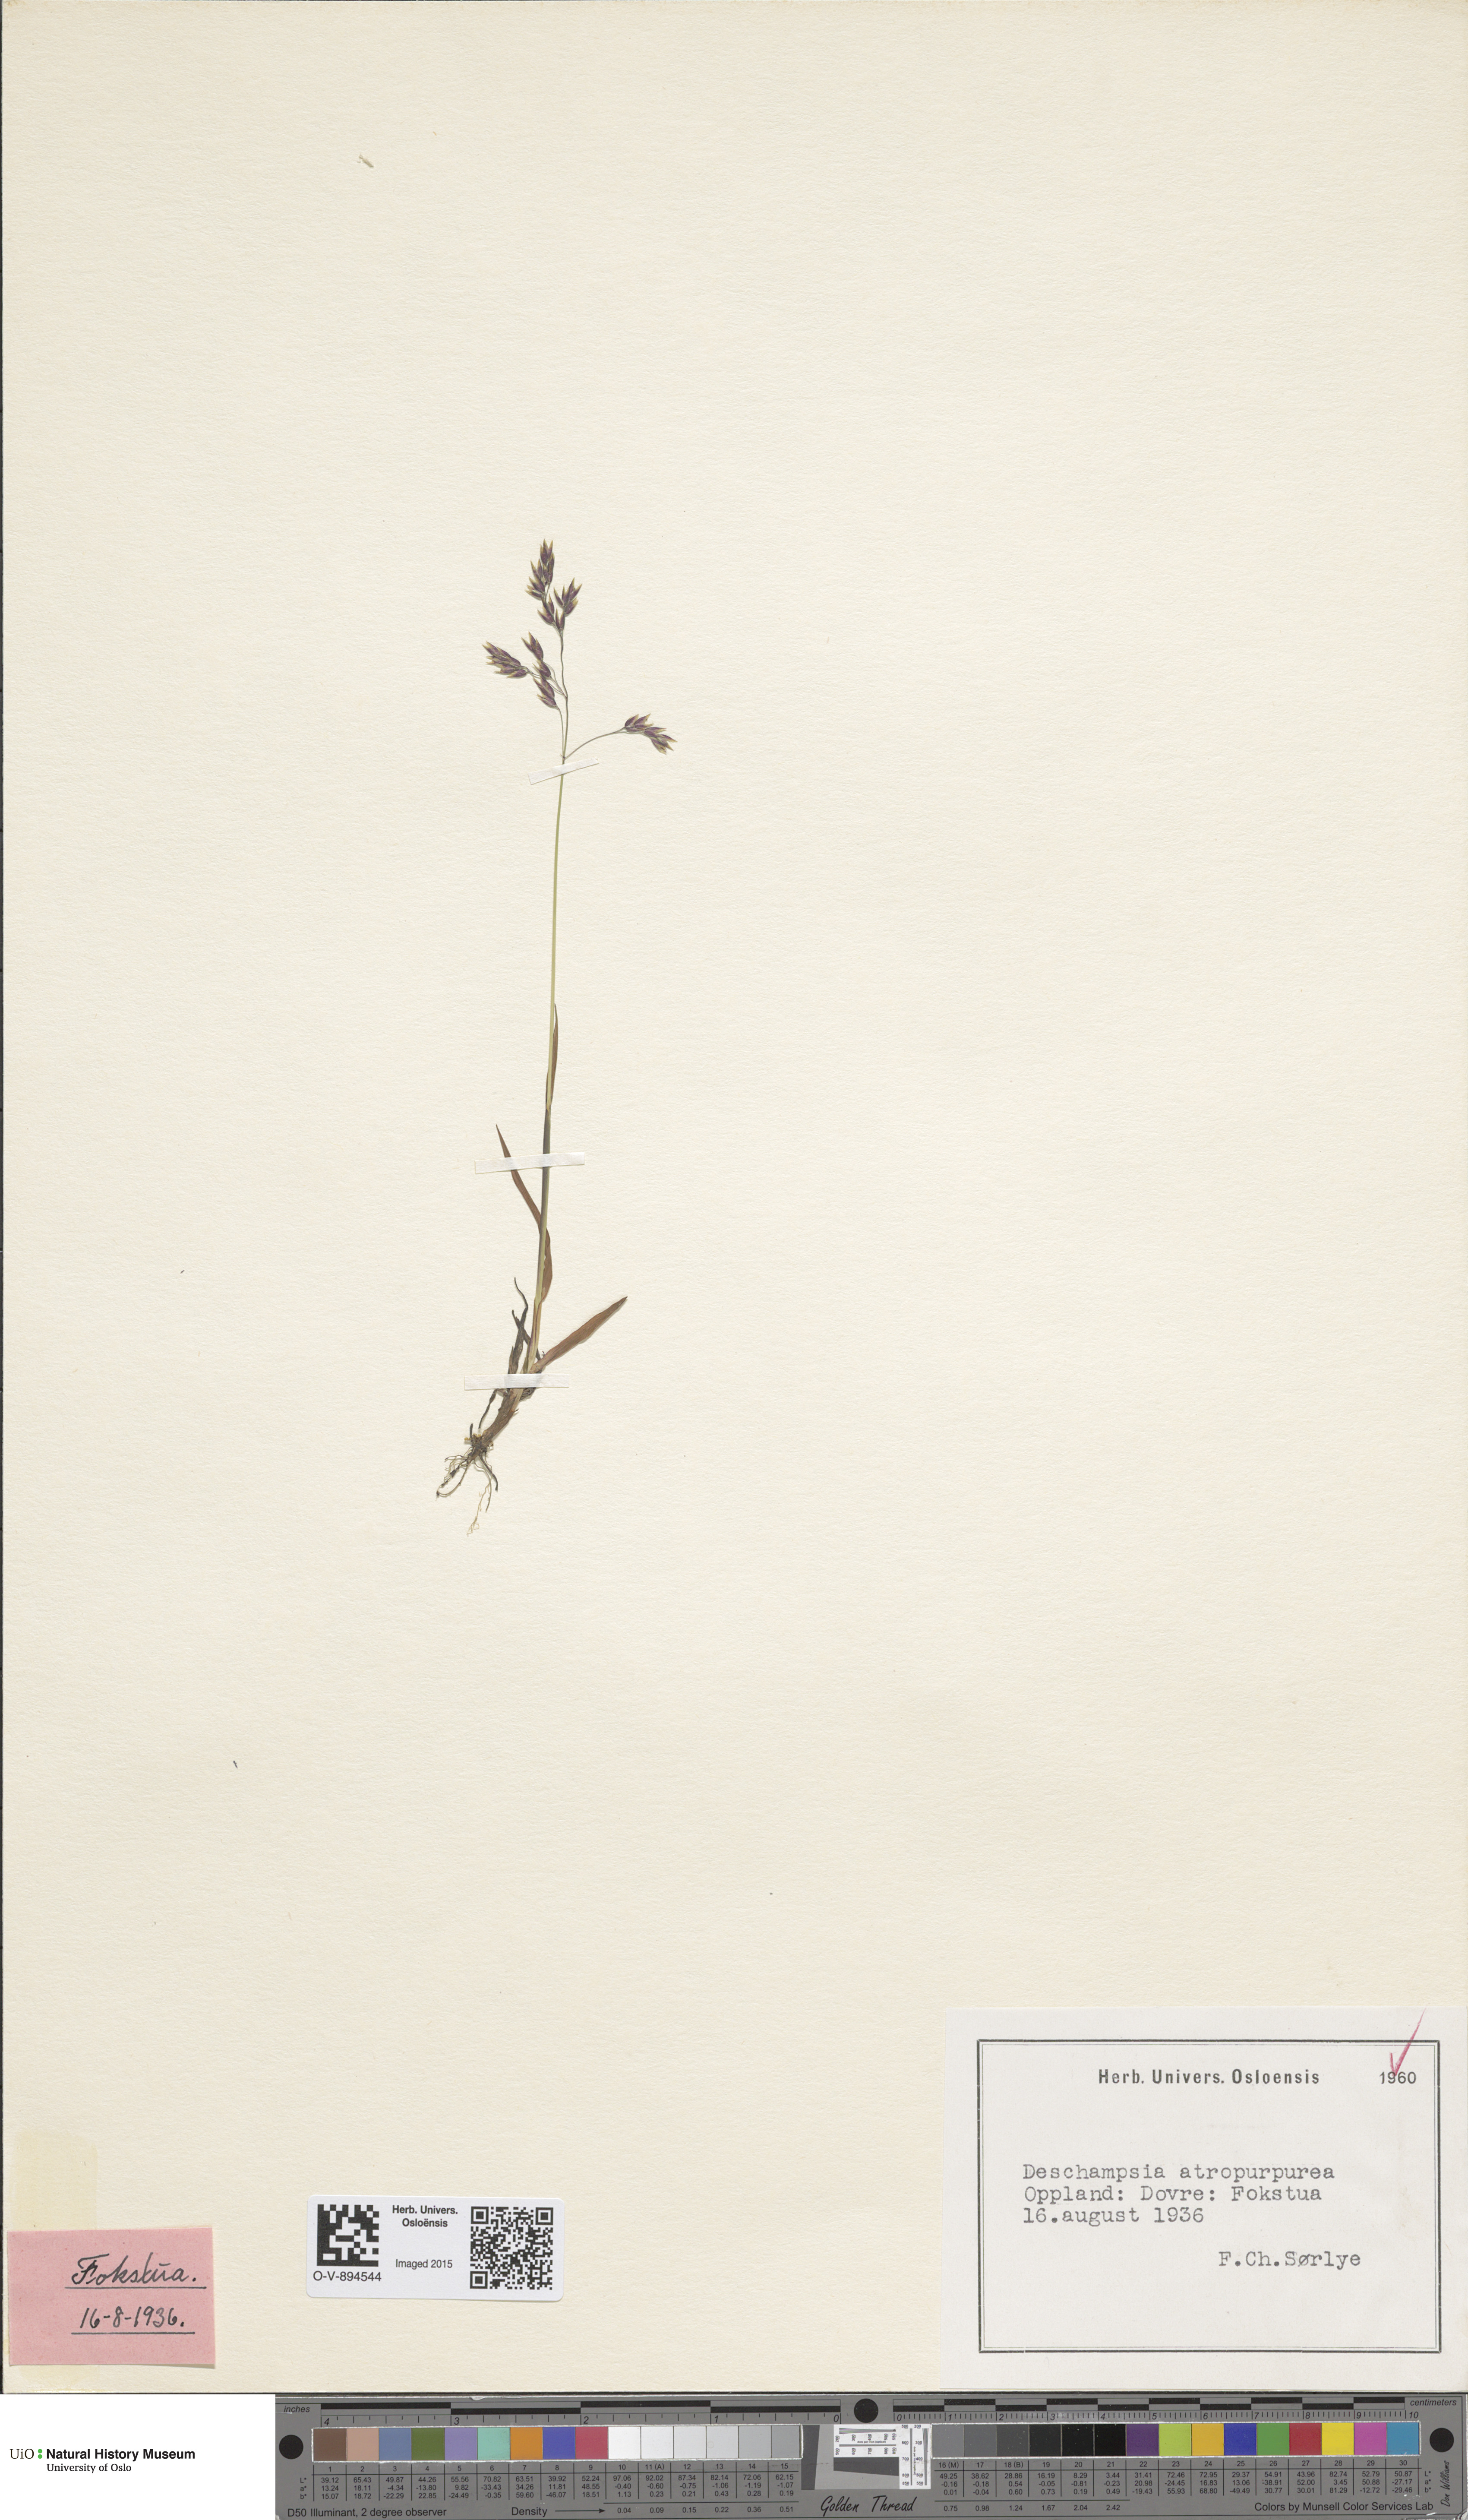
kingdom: Plantae
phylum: Tracheophyta
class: Liliopsida
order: Poales
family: Poaceae
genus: Vahlodea
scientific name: Vahlodea atropurpurea
